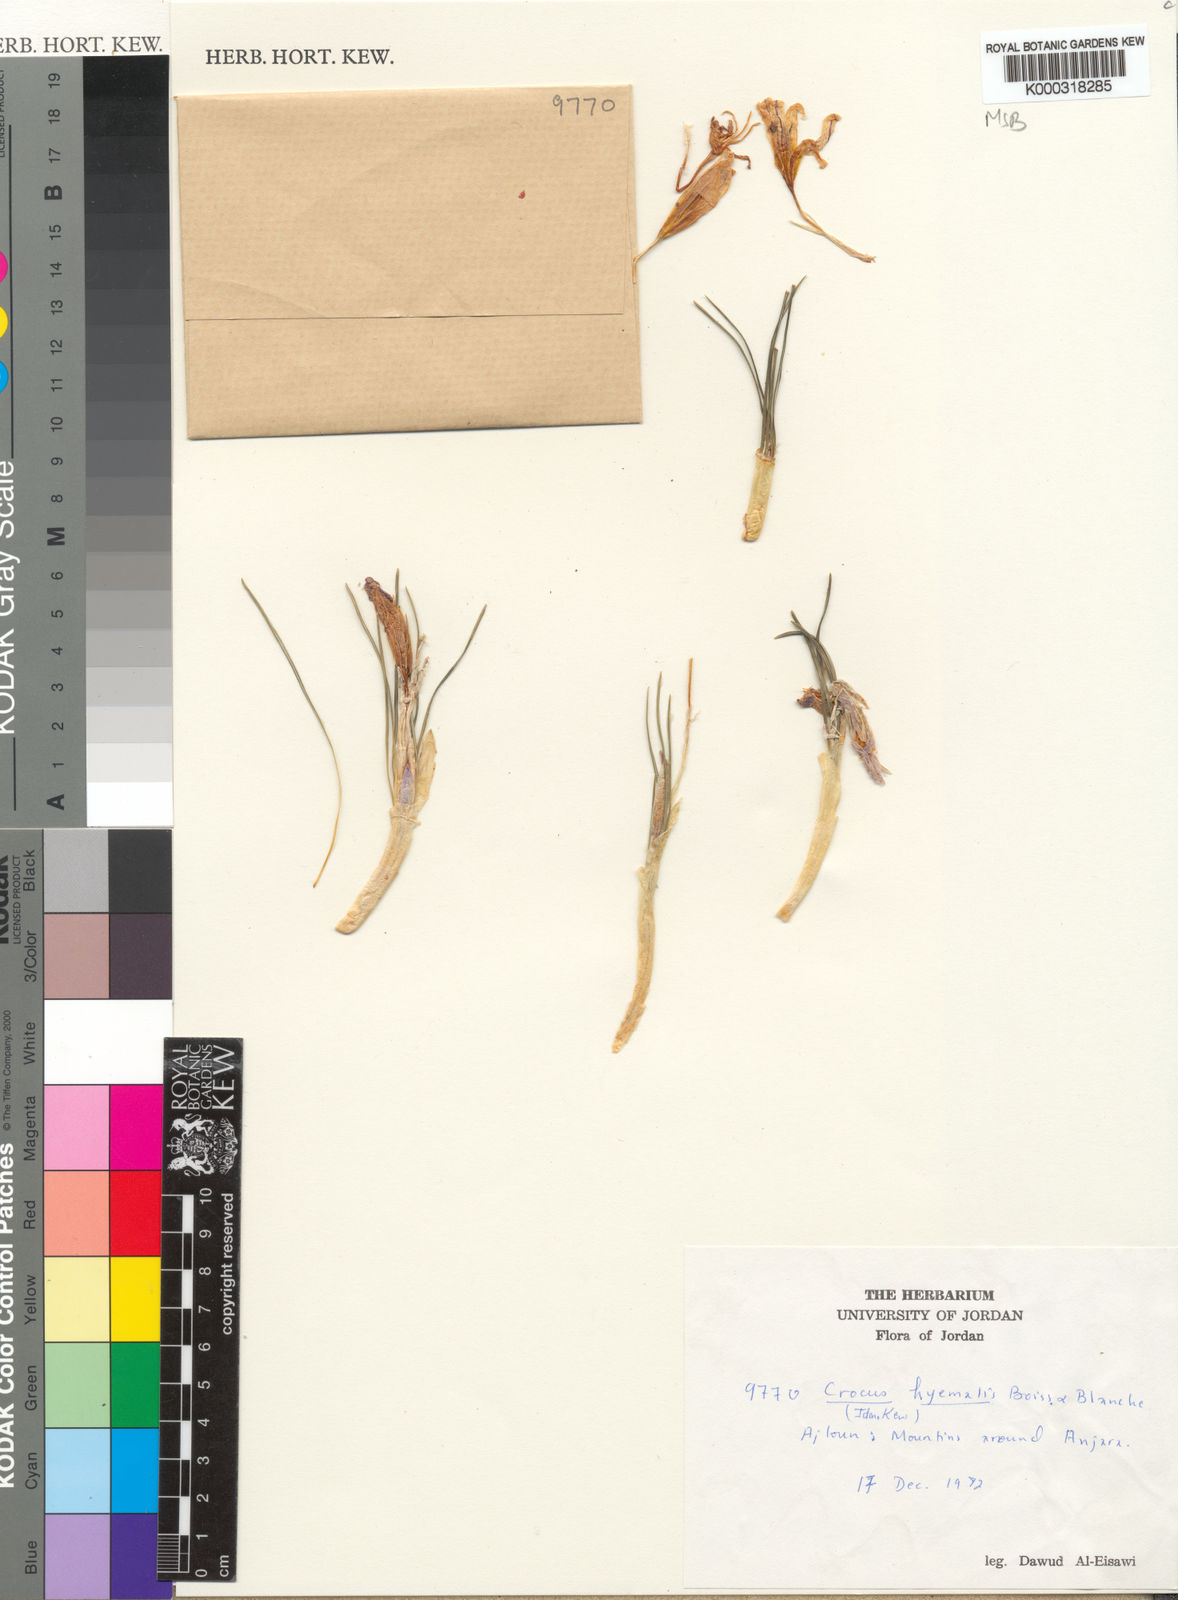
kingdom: Plantae
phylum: Tracheophyta
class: Liliopsida
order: Asparagales
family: Iridaceae
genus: Crocus
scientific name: Crocus hyemalis
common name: Winter crocus
